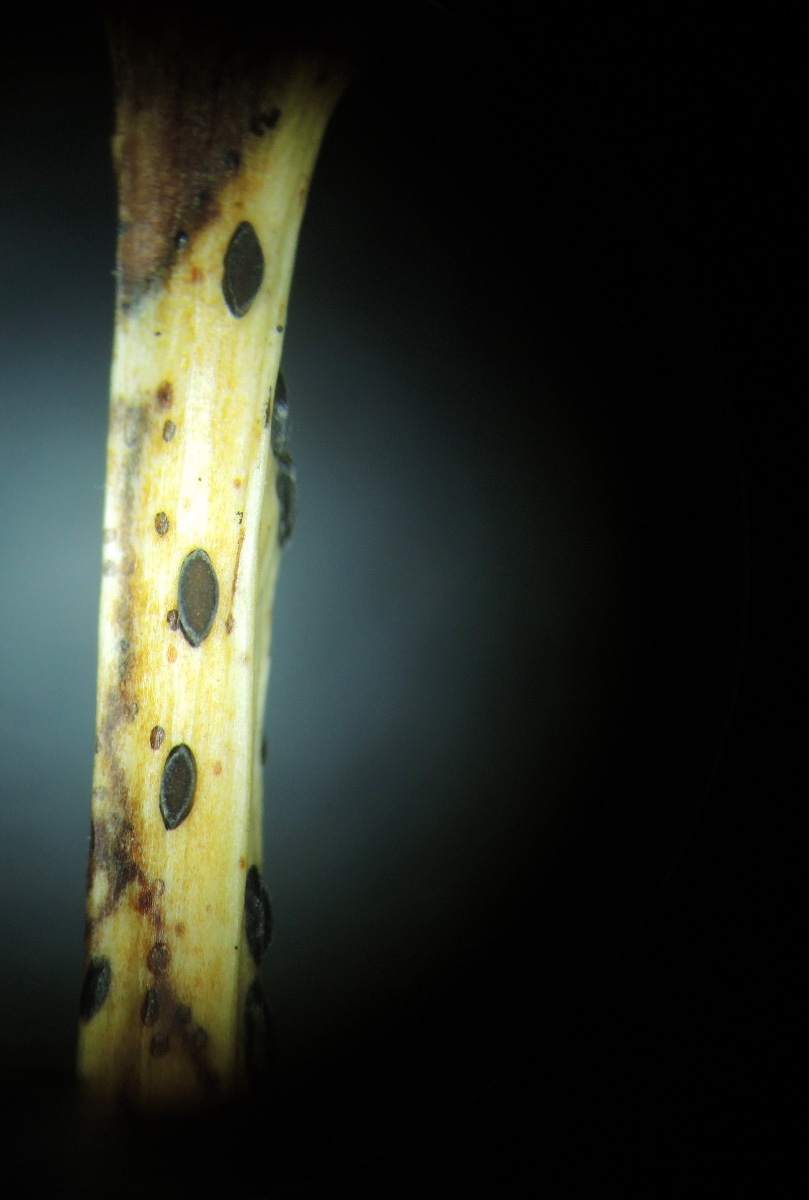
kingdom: Fungi
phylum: Ascomycota
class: Leotiomycetes
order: Rhytismatales
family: Rhytismataceae
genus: Lophodermium
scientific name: Lophodermium petiolicola
